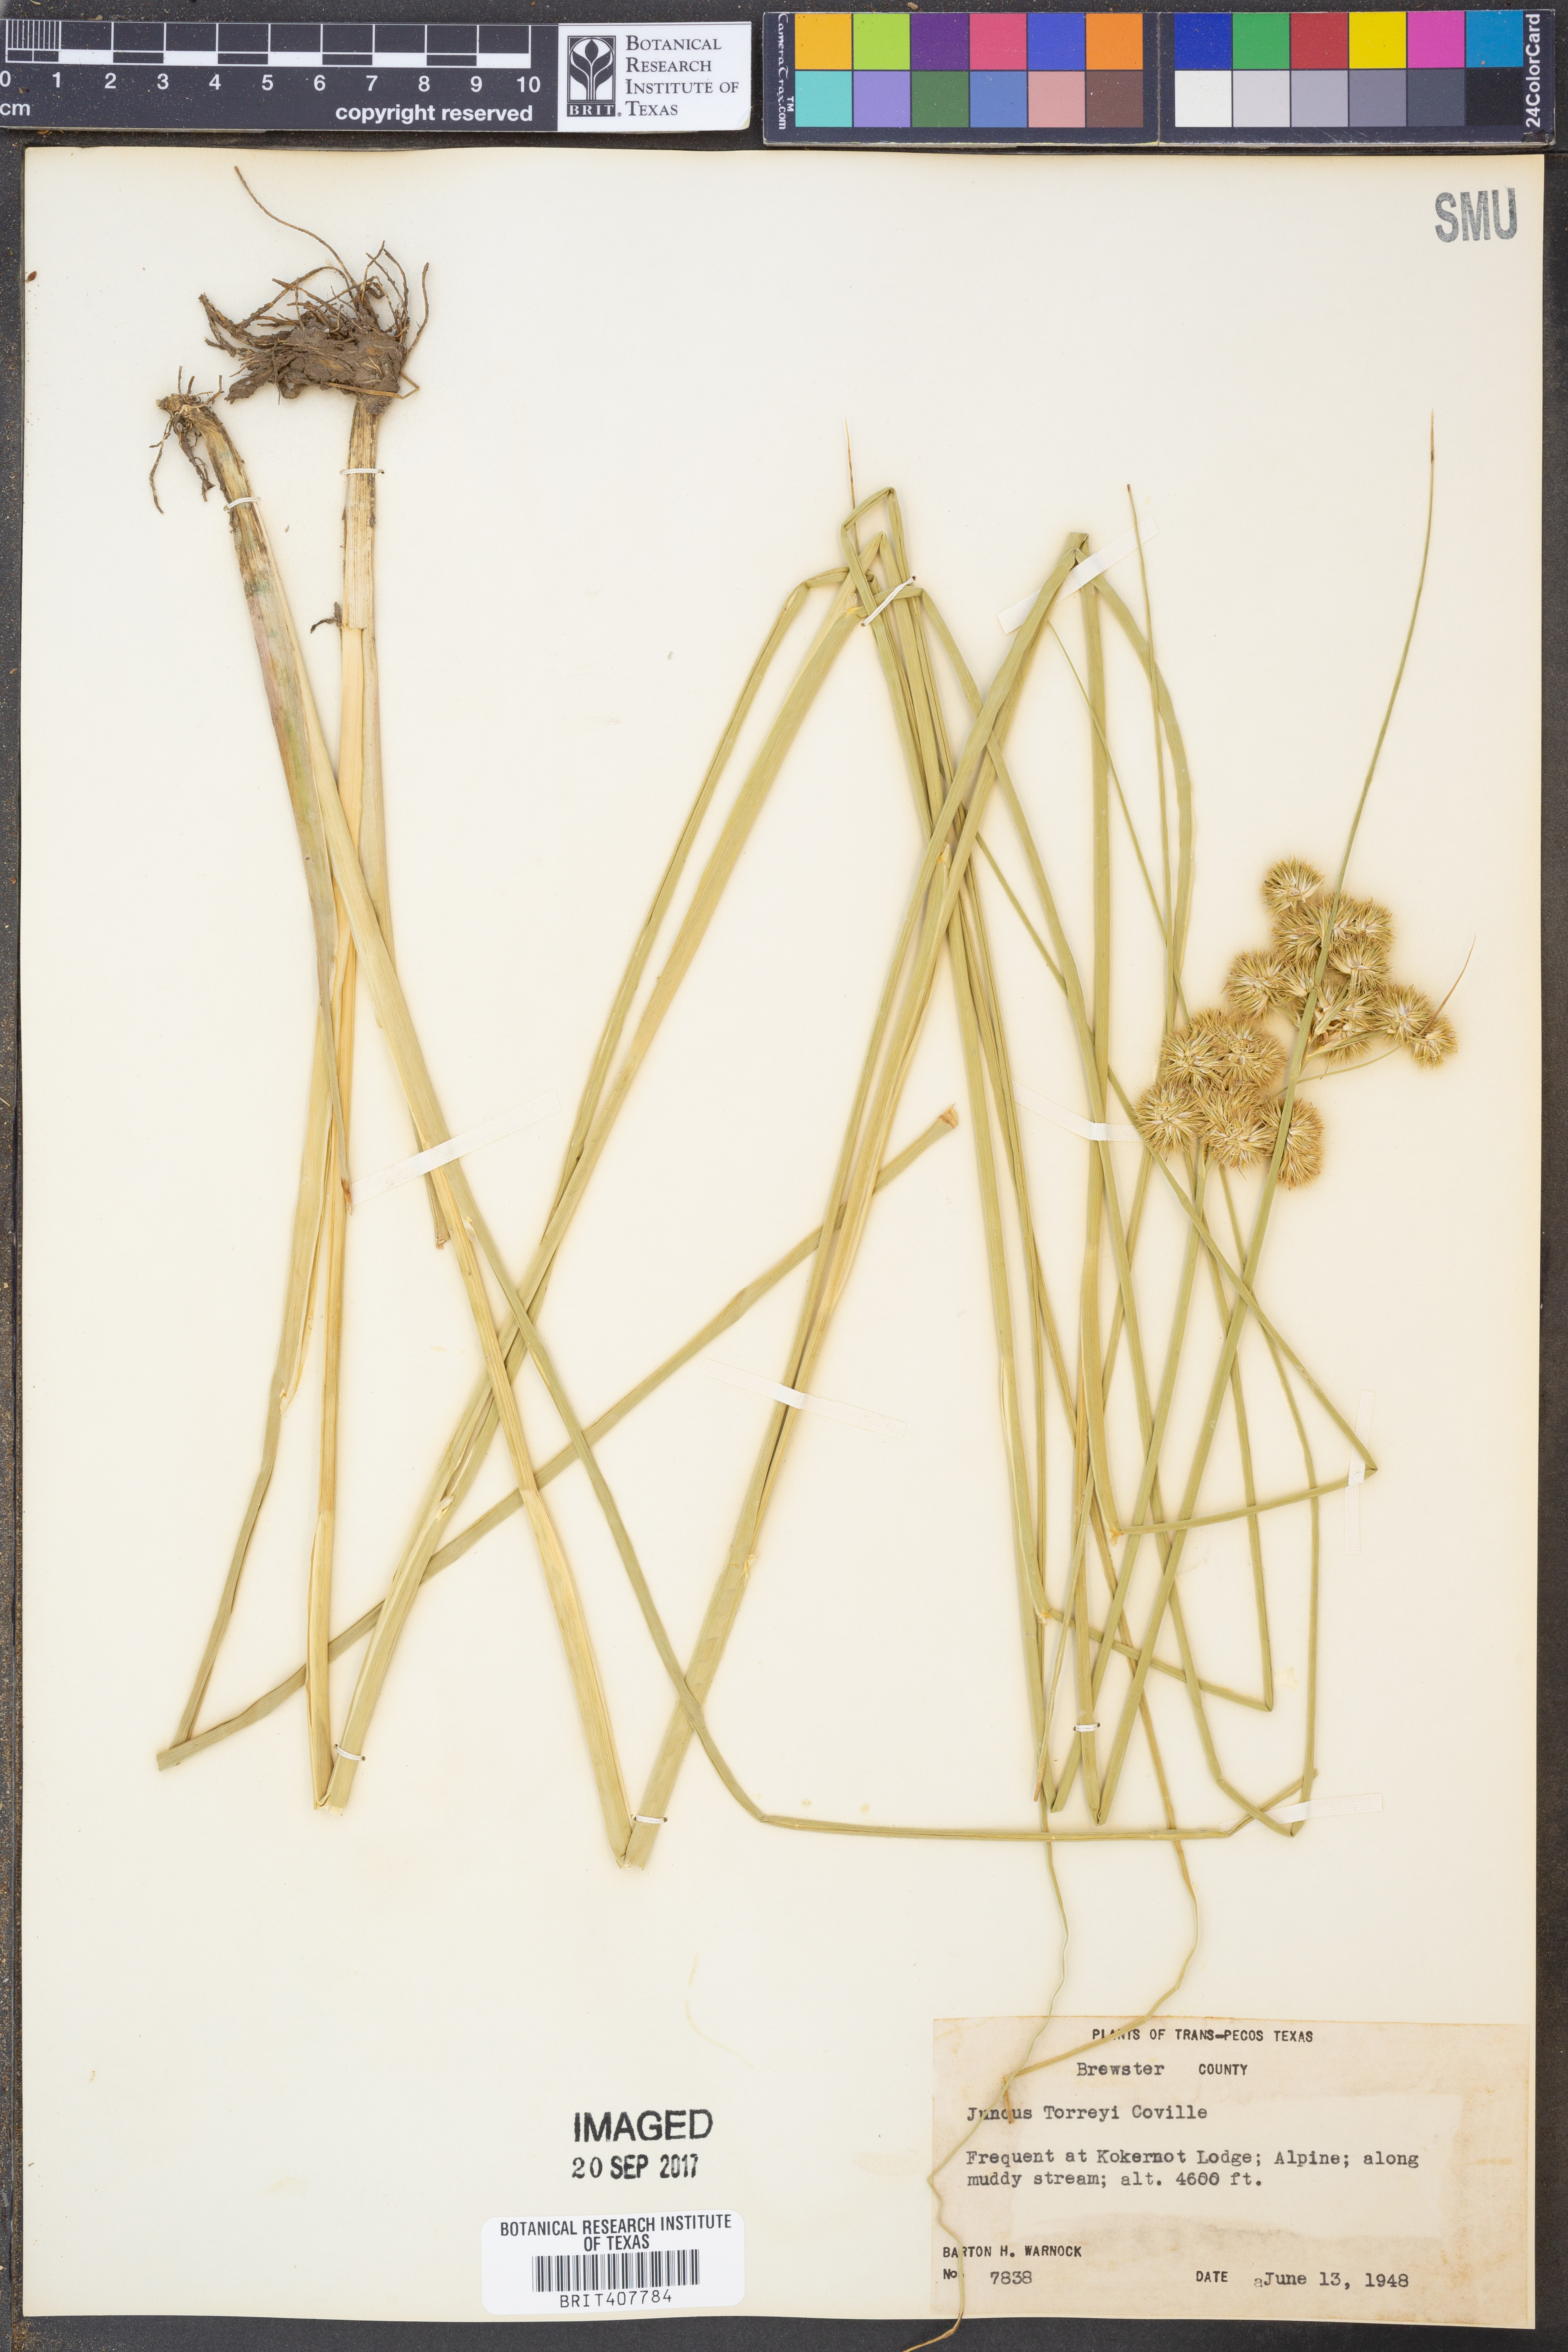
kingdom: Plantae
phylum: Tracheophyta
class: Liliopsida
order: Poales
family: Juncaceae
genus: Juncus
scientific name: Juncus torreyi
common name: Torrey's rush
